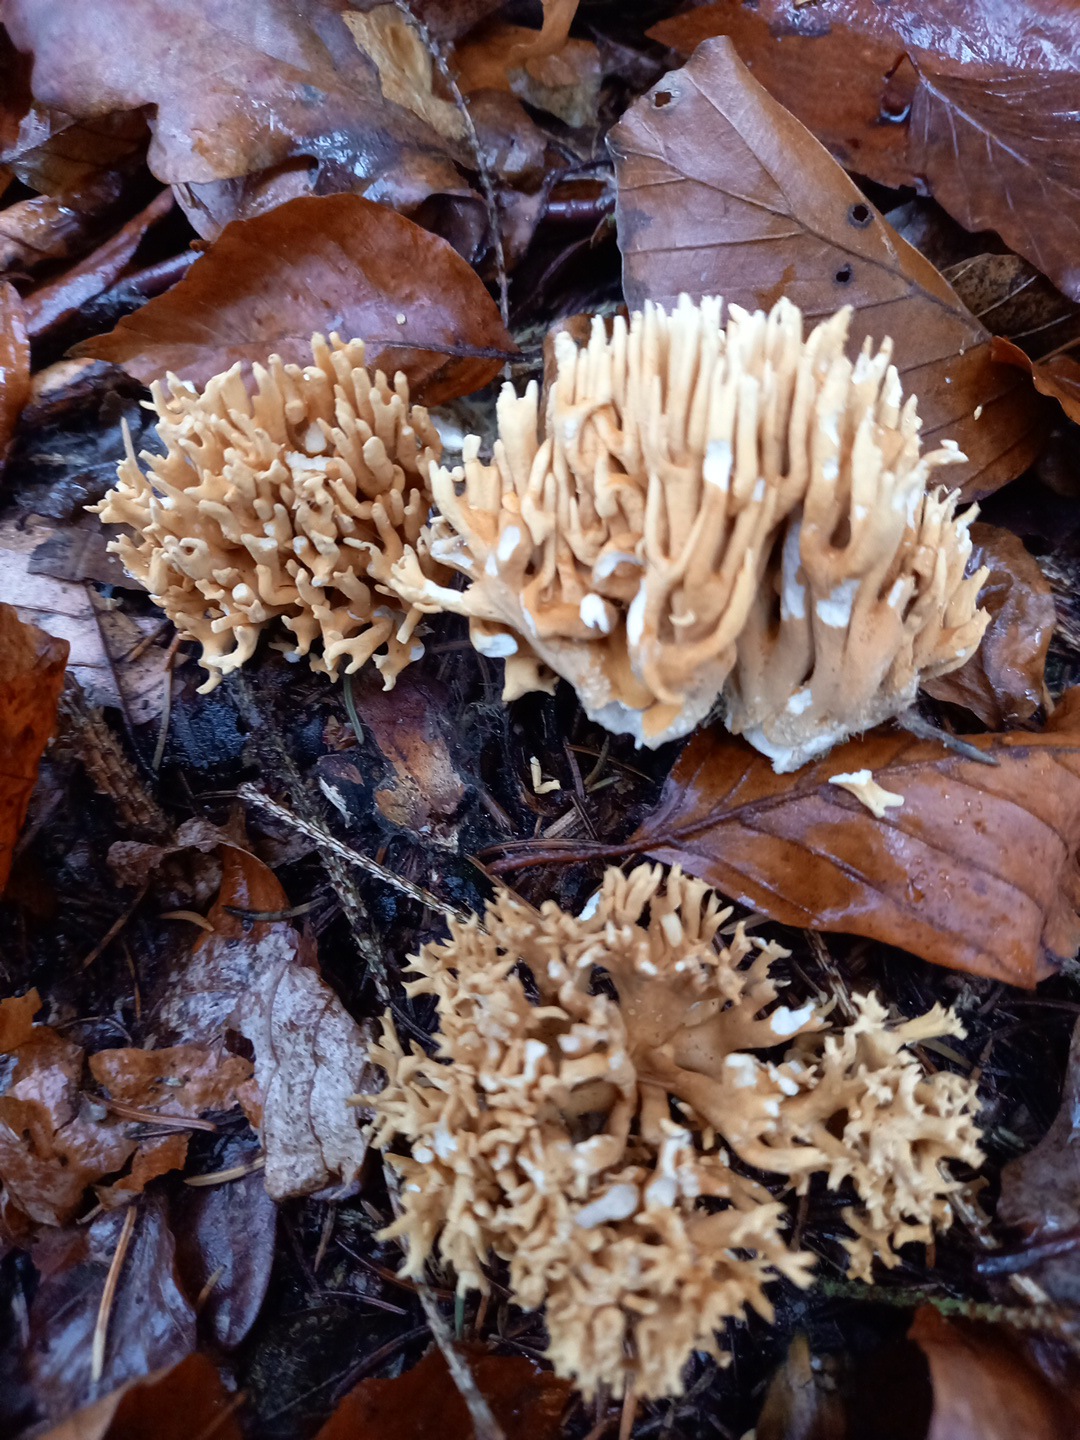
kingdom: Fungi
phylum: Basidiomycota
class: Agaricomycetes
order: Gomphales
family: Gomphaceae
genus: Phaeoclavulina
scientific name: Phaeoclavulina eumorpha
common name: gran-koralsvamp
